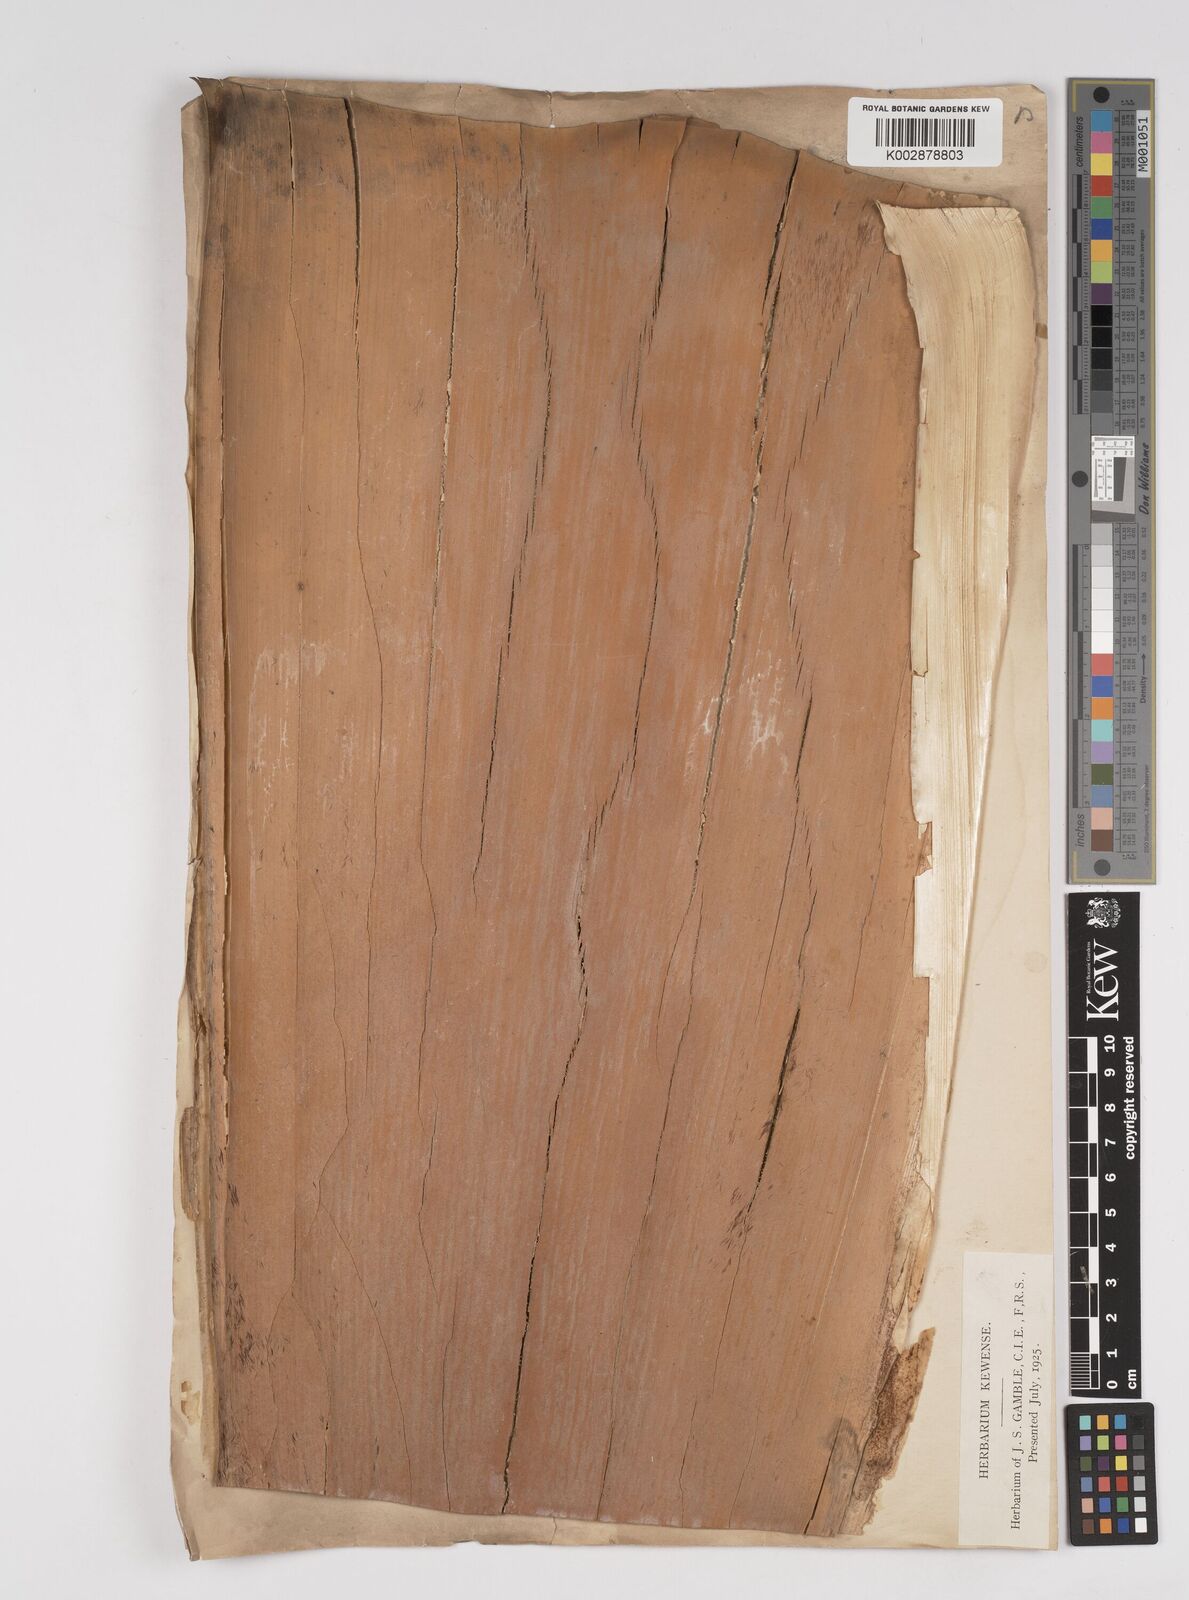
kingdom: Plantae
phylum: Tracheophyta
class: Liliopsida
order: Poales
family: Poaceae
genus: Dendrocalamus
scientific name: Dendrocalamus hamiltonii
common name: Tama bamboo
